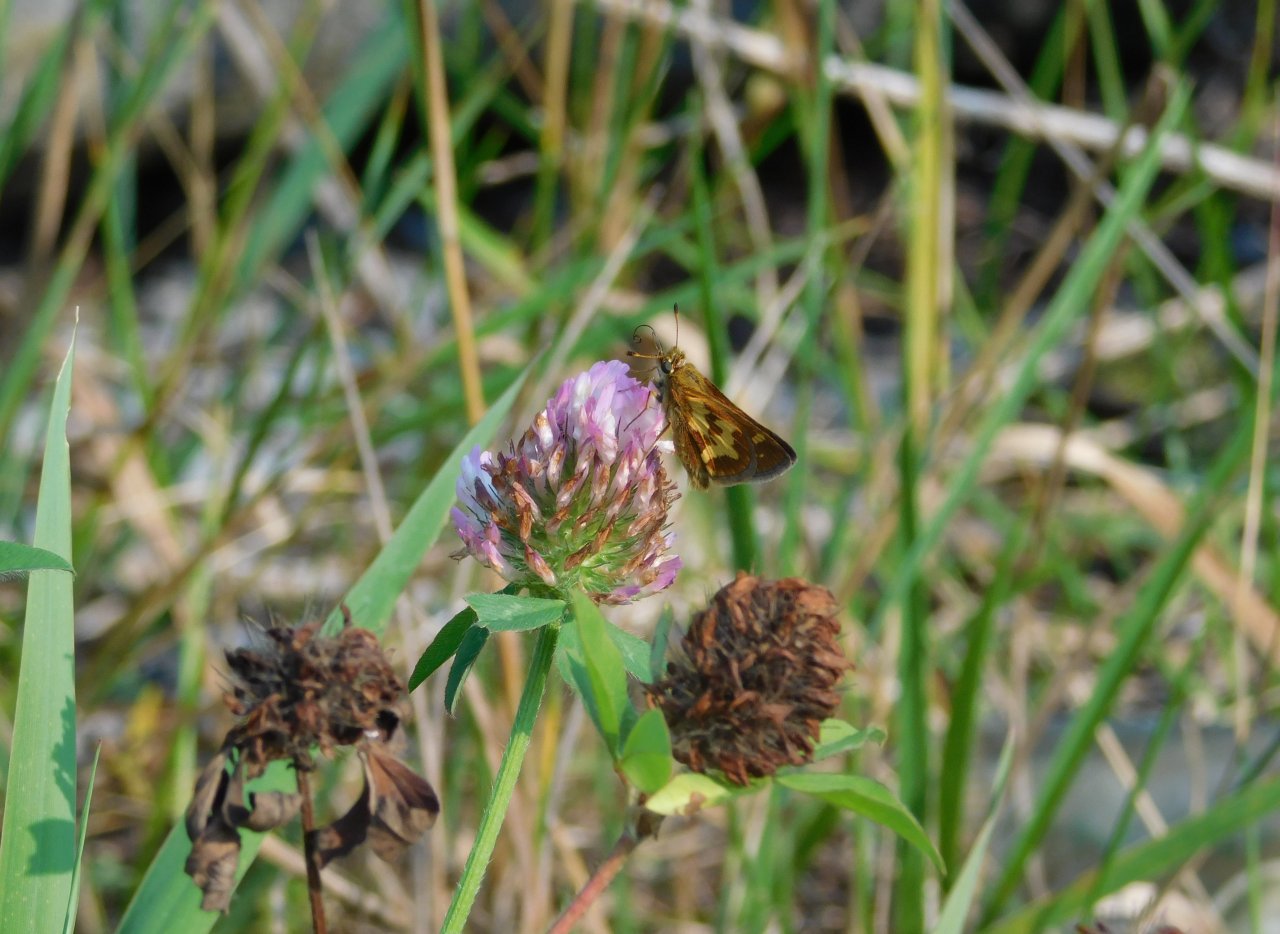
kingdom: Animalia
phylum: Arthropoda
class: Insecta
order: Lepidoptera
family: Hesperiidae
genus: Polites
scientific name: Polites coras
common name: Peck's Skipper
